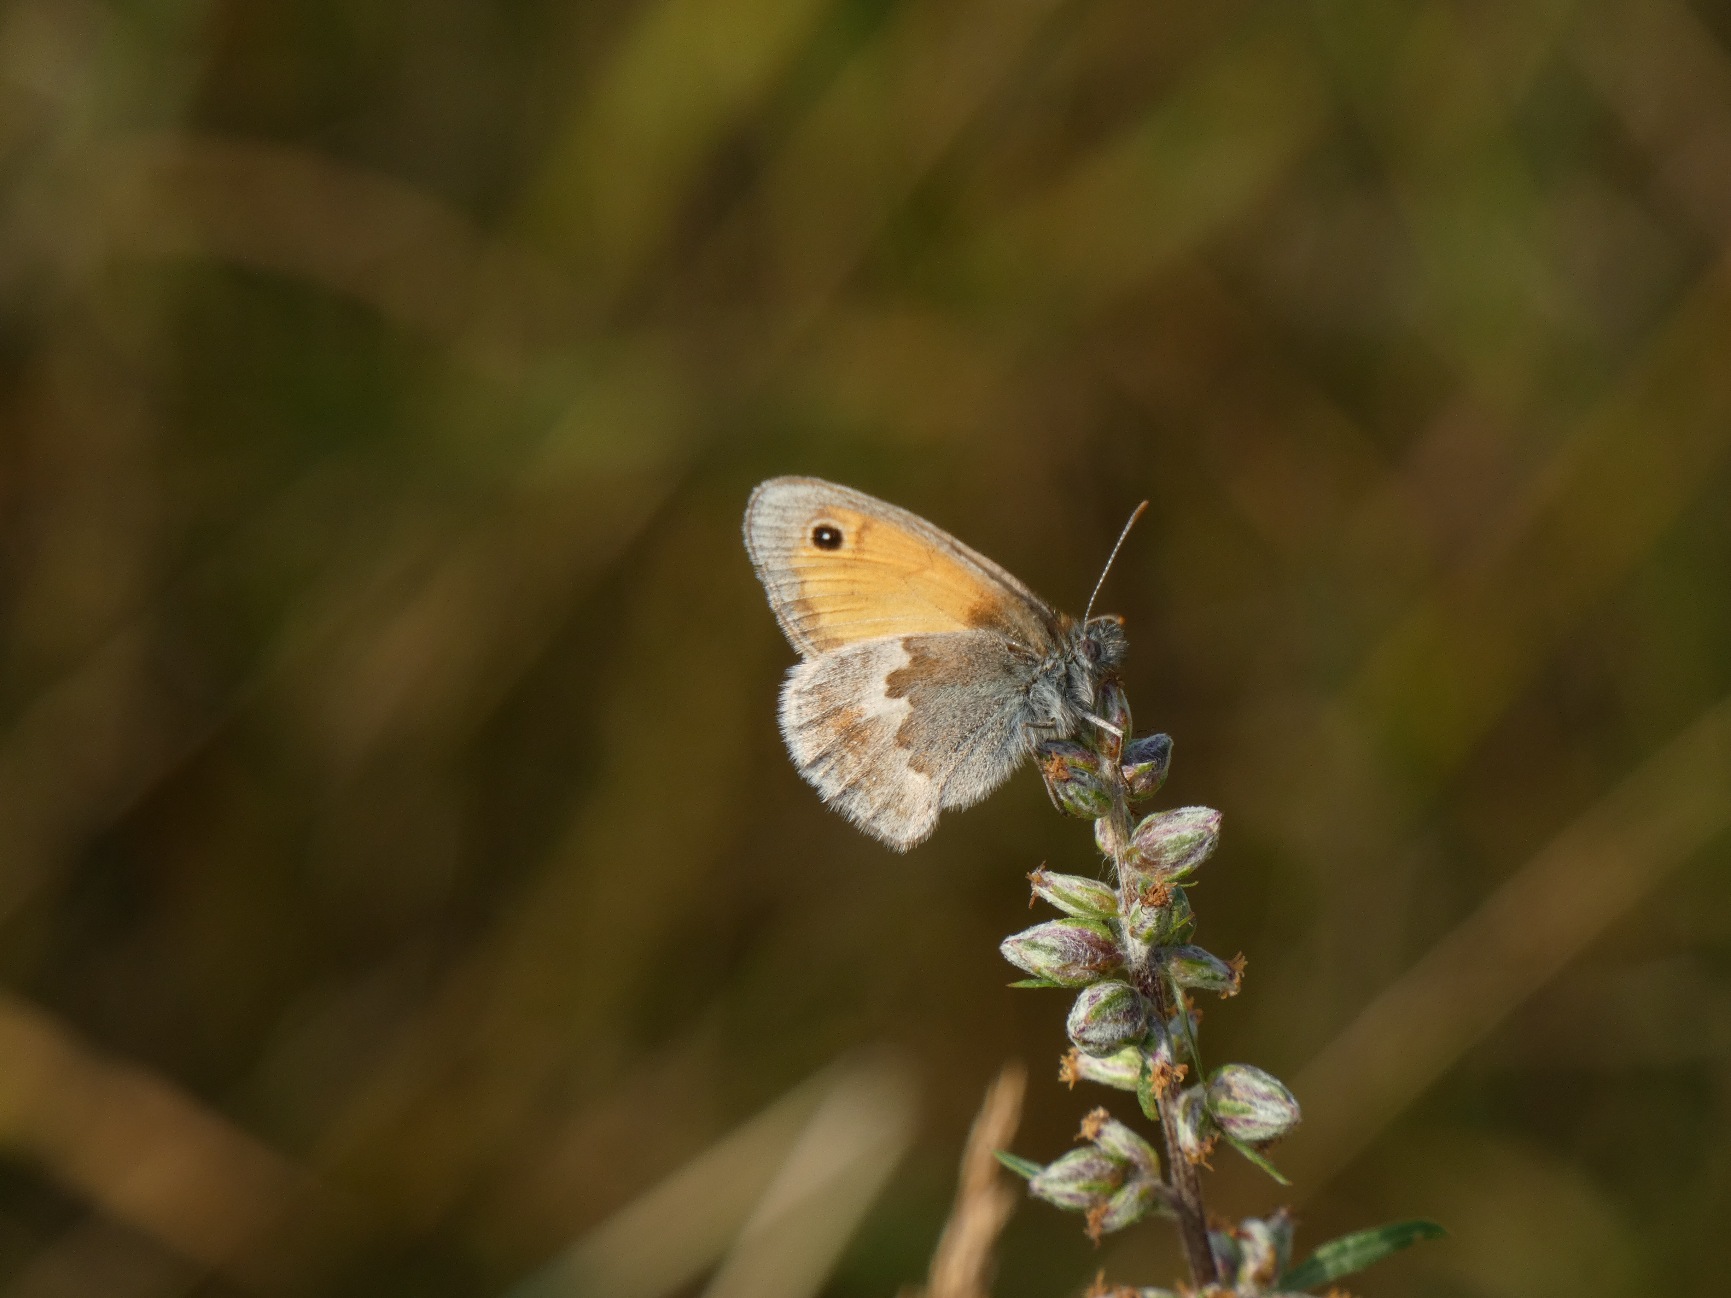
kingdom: Animalia
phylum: Arthropoda
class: Insecta
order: Lepidoptera
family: Nymphalidae
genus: Coenonympha
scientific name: Coenonympha pamphilus
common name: Okkergul randøje
